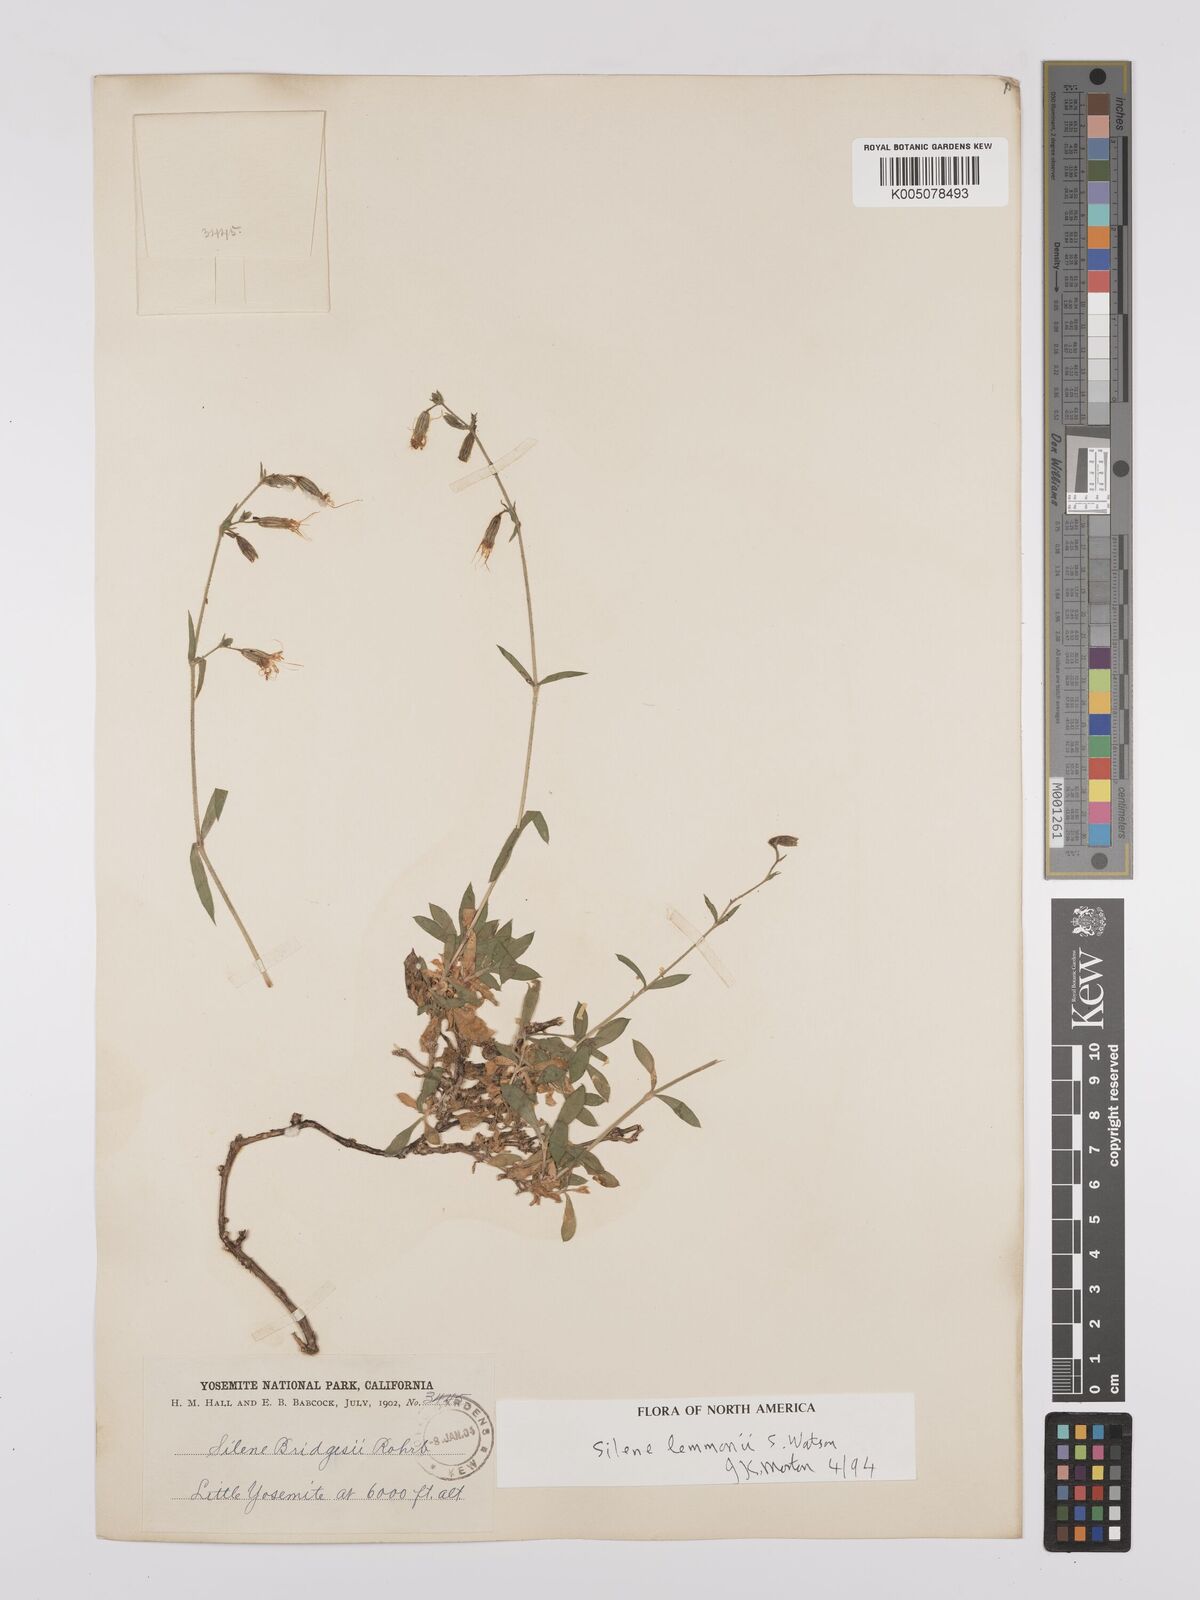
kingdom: Plantae
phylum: Tracheophyta
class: Magnoliopsida
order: Caryophyllales
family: Caryophyllaceae
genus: Silene
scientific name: Silene bridgesii
